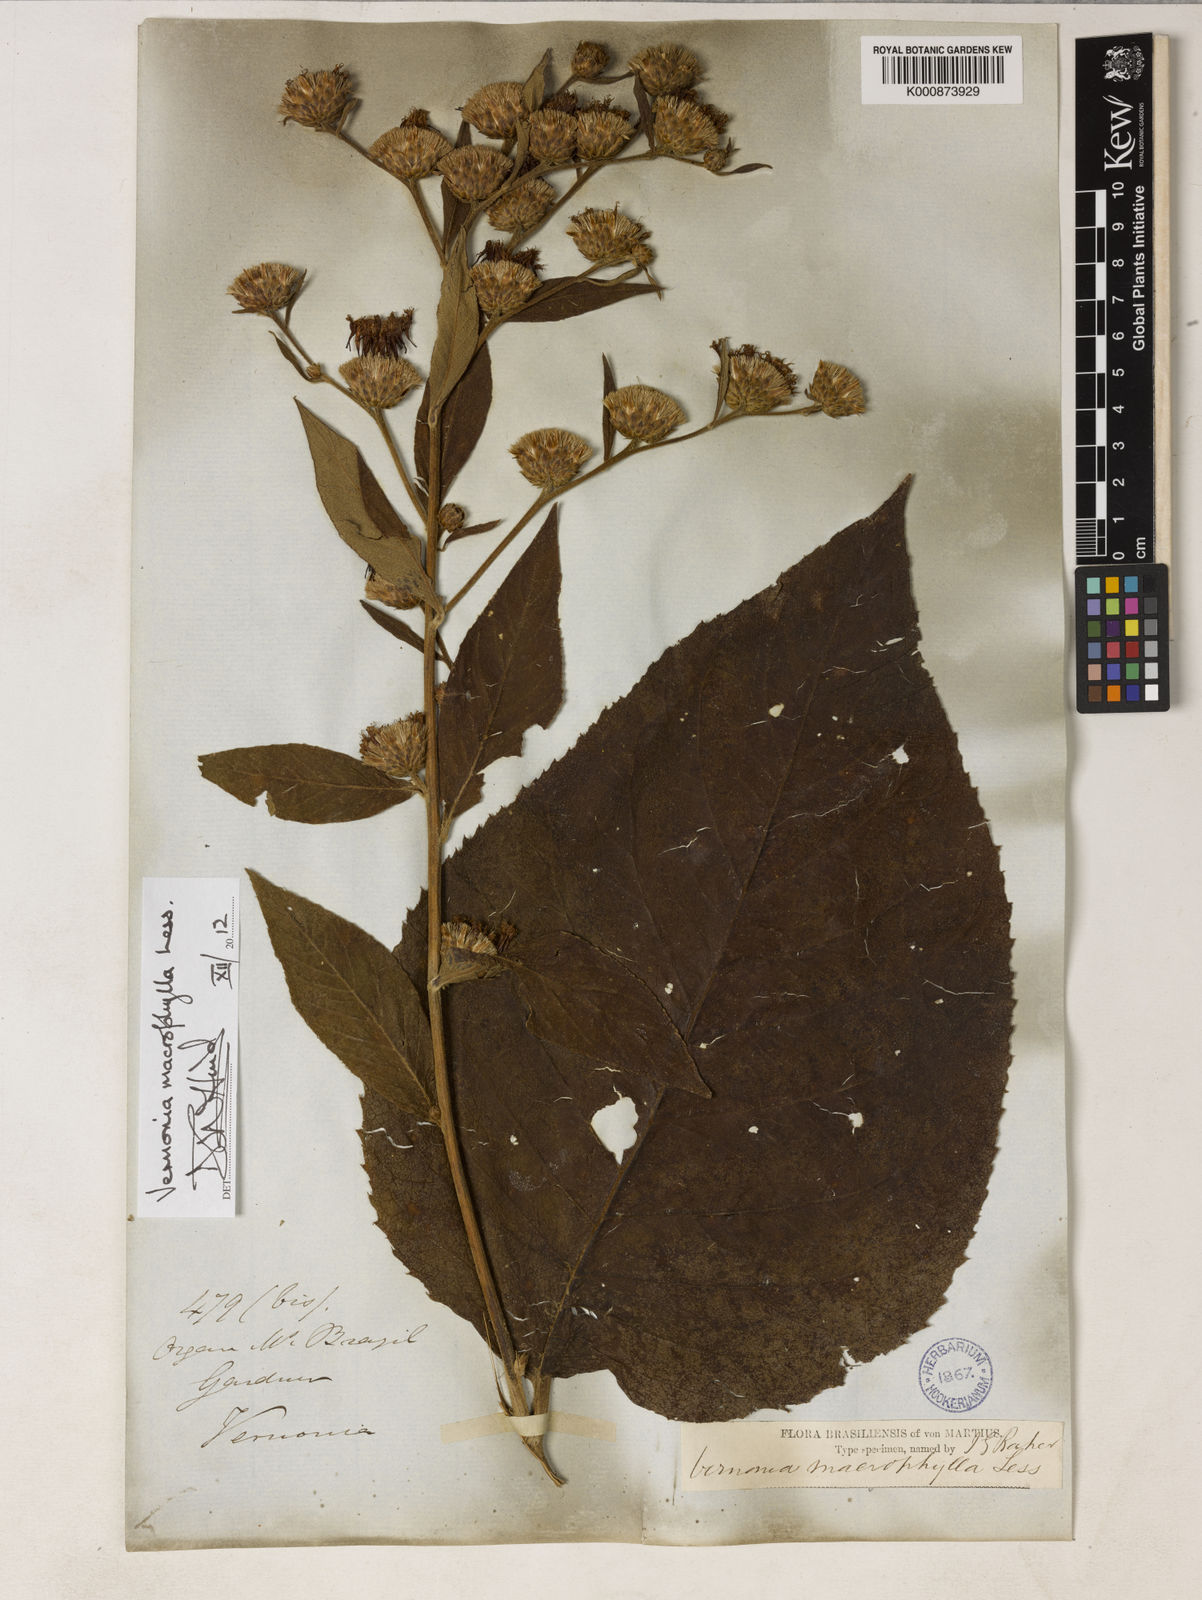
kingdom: Plantae
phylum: Tracheophyta
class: Magnoliopsida
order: Asterales
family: Asteraceae
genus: Lessingianthus
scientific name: Lessingianthus macrophyllus
